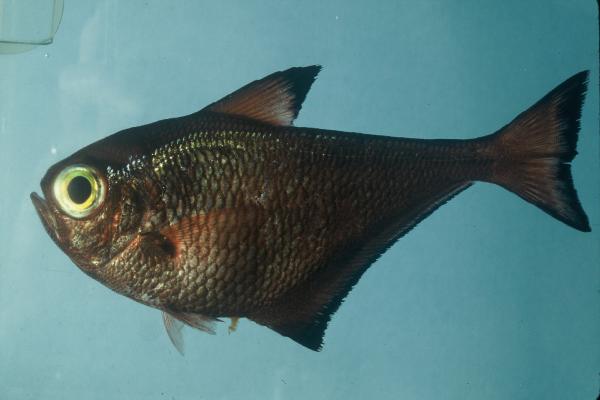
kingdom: Animalia
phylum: Chordata
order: Perciformes
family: Pempheridae
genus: Pempheris
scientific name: Pempheris mangula
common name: Black-edged sweeper
